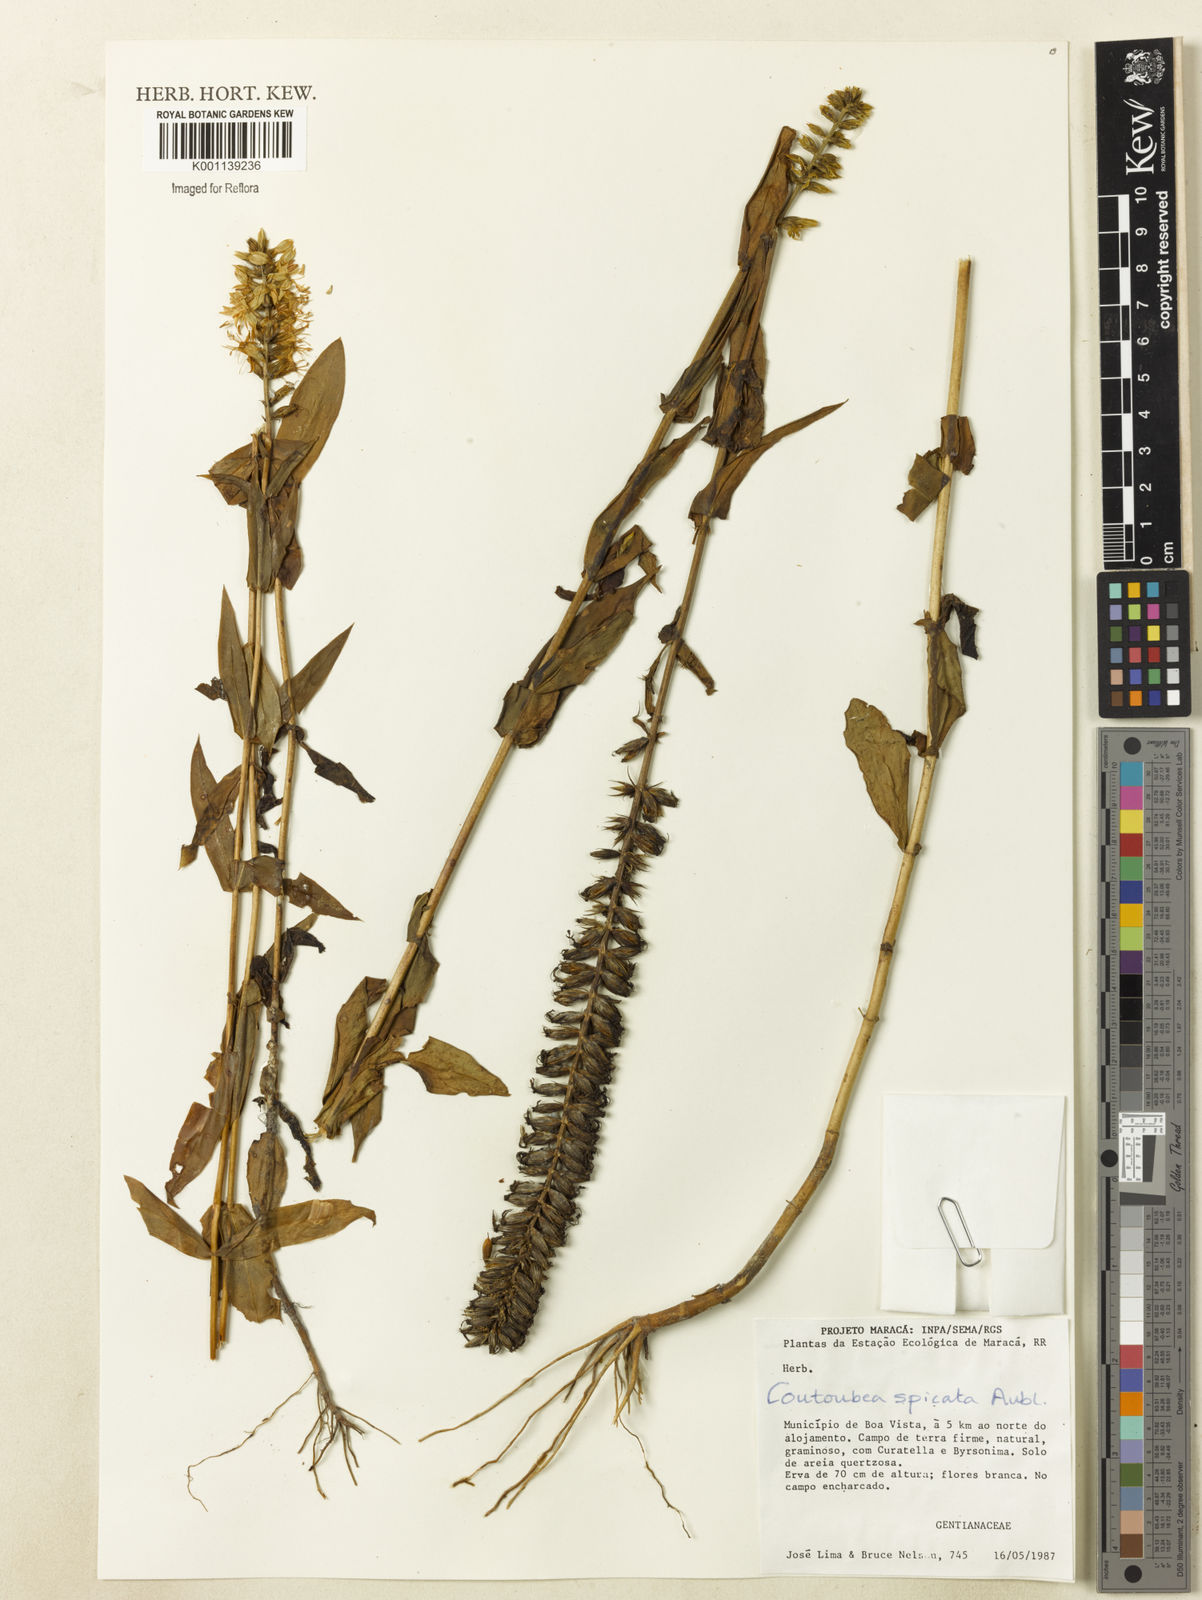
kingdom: Plantae
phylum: Tracheophyta
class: Magnoliopsida
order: Gentianales
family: Gentianaceae
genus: Coutoubea
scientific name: Coutoubea spicata
